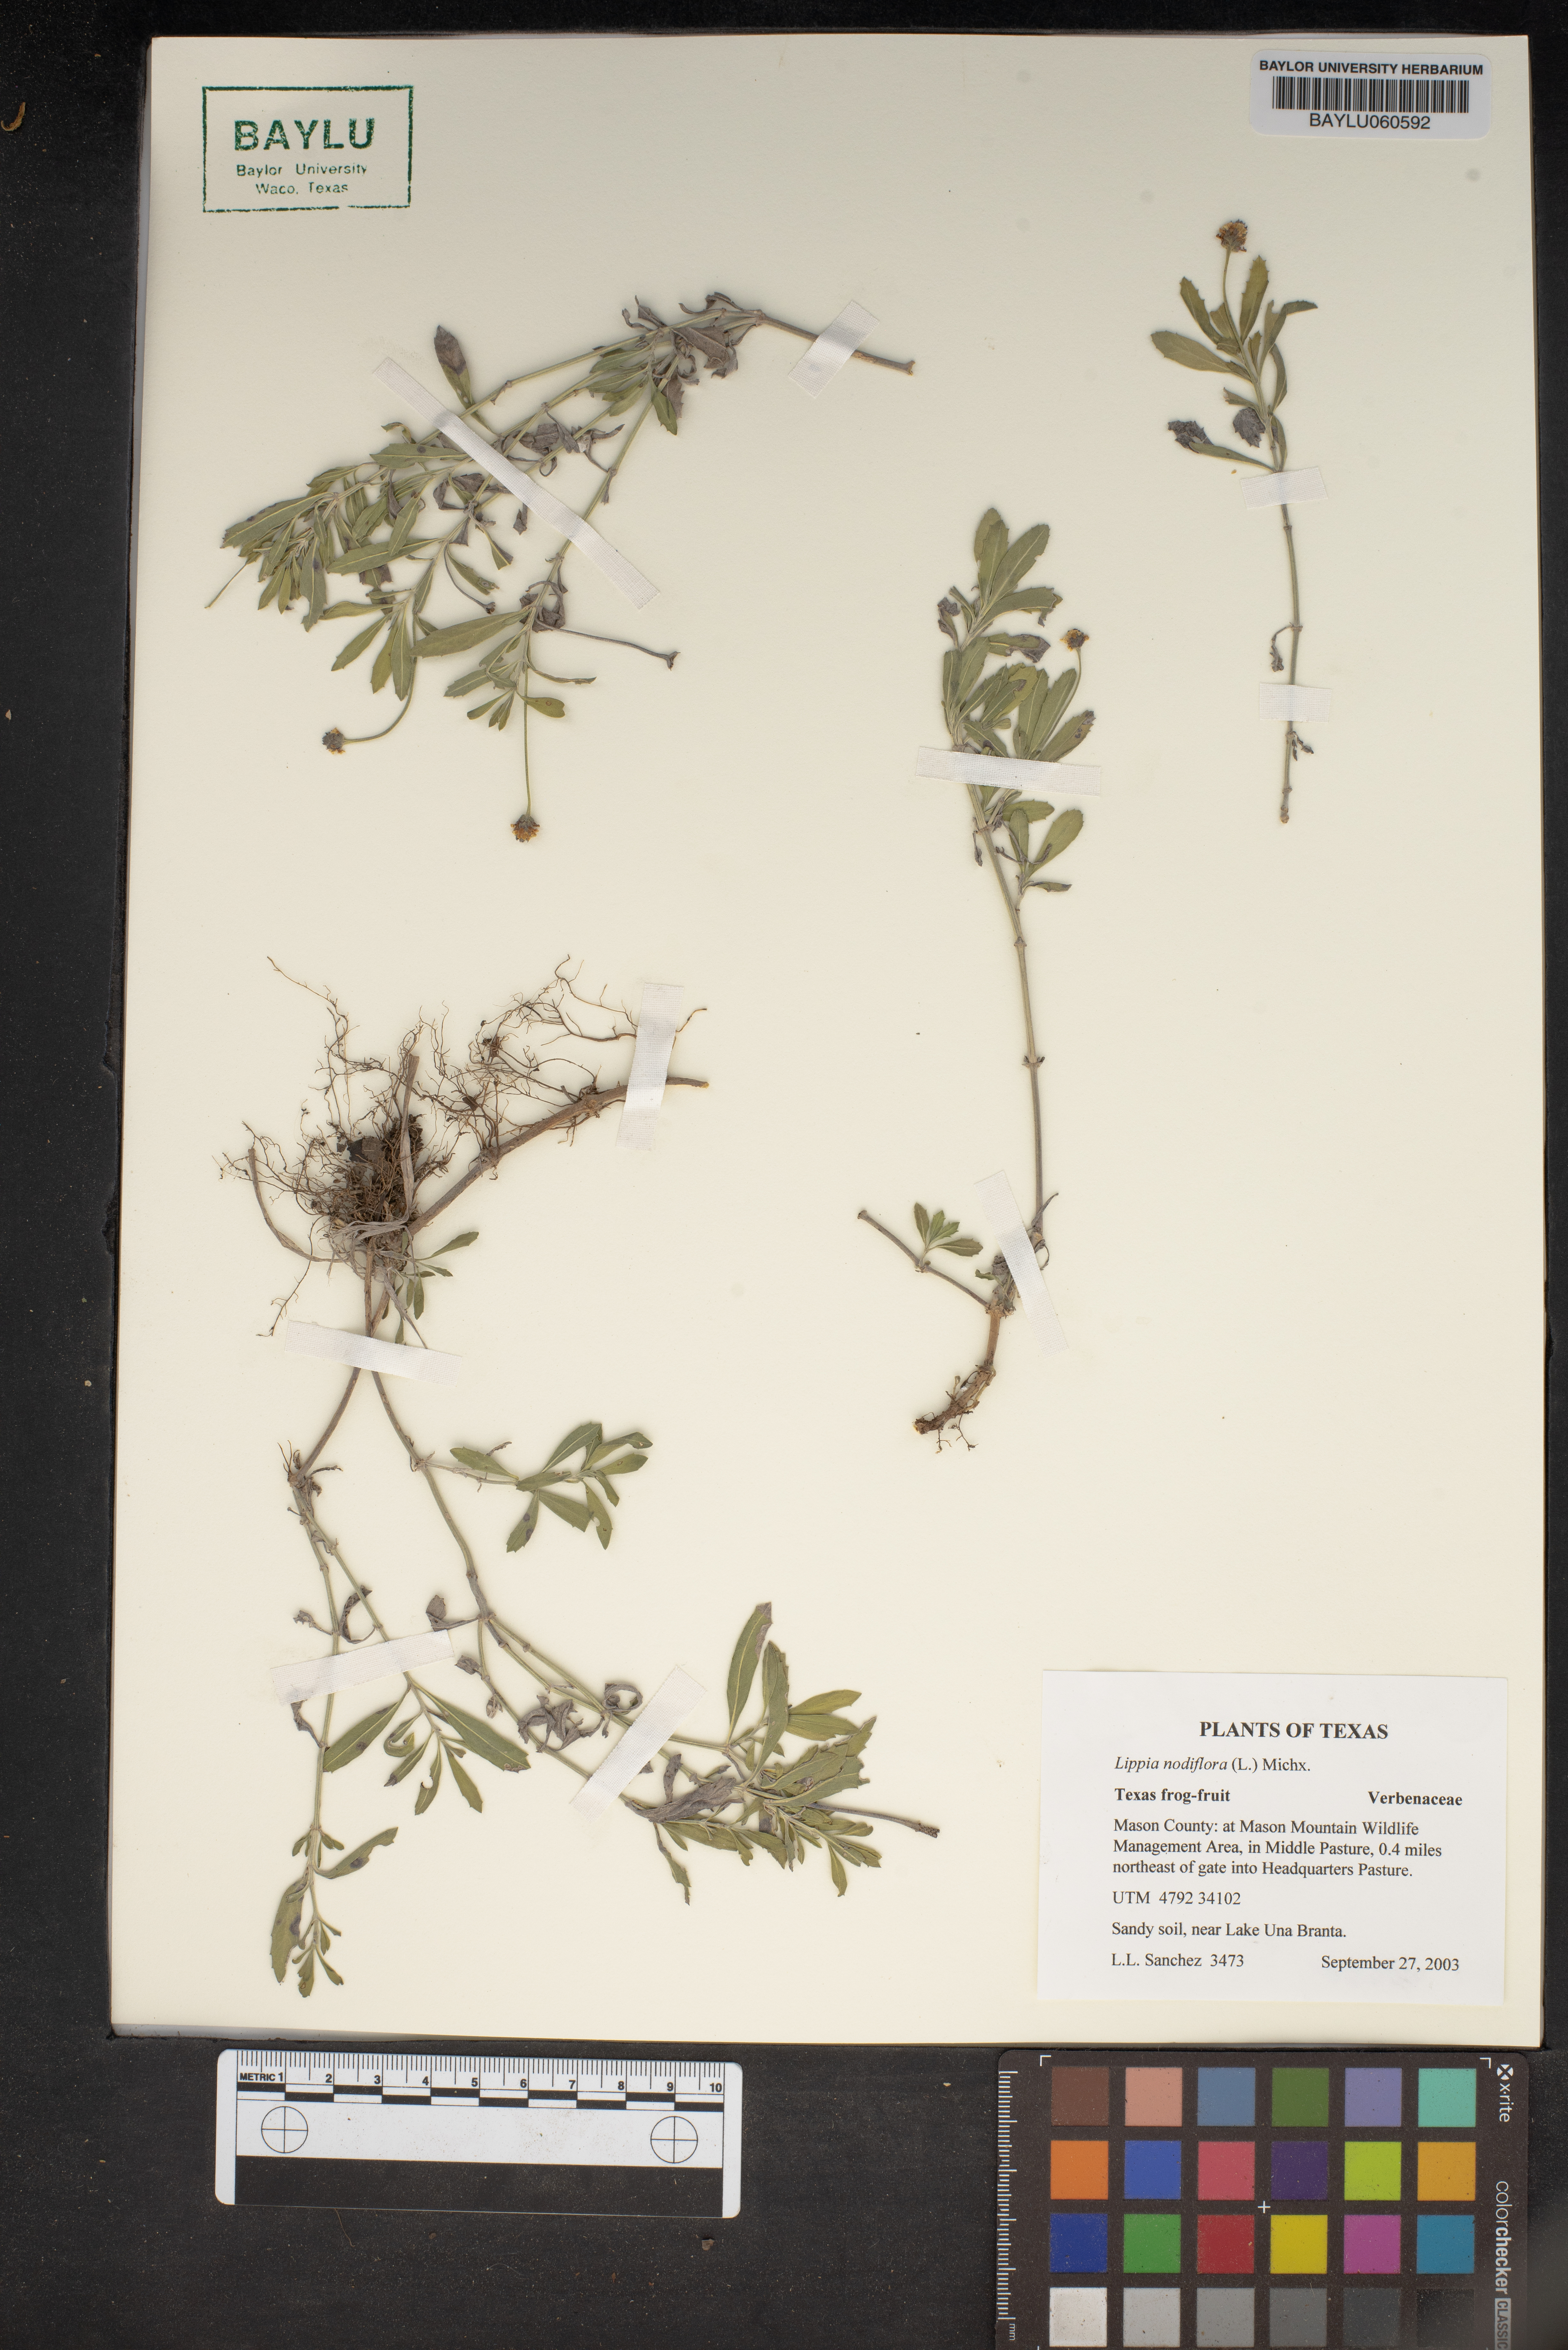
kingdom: Plantae
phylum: Tracheophyta
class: Magnoliopsida
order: Lamiales
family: Verbenaceae
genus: Phyla
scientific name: Phyla nodiflora
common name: Frogfruit
